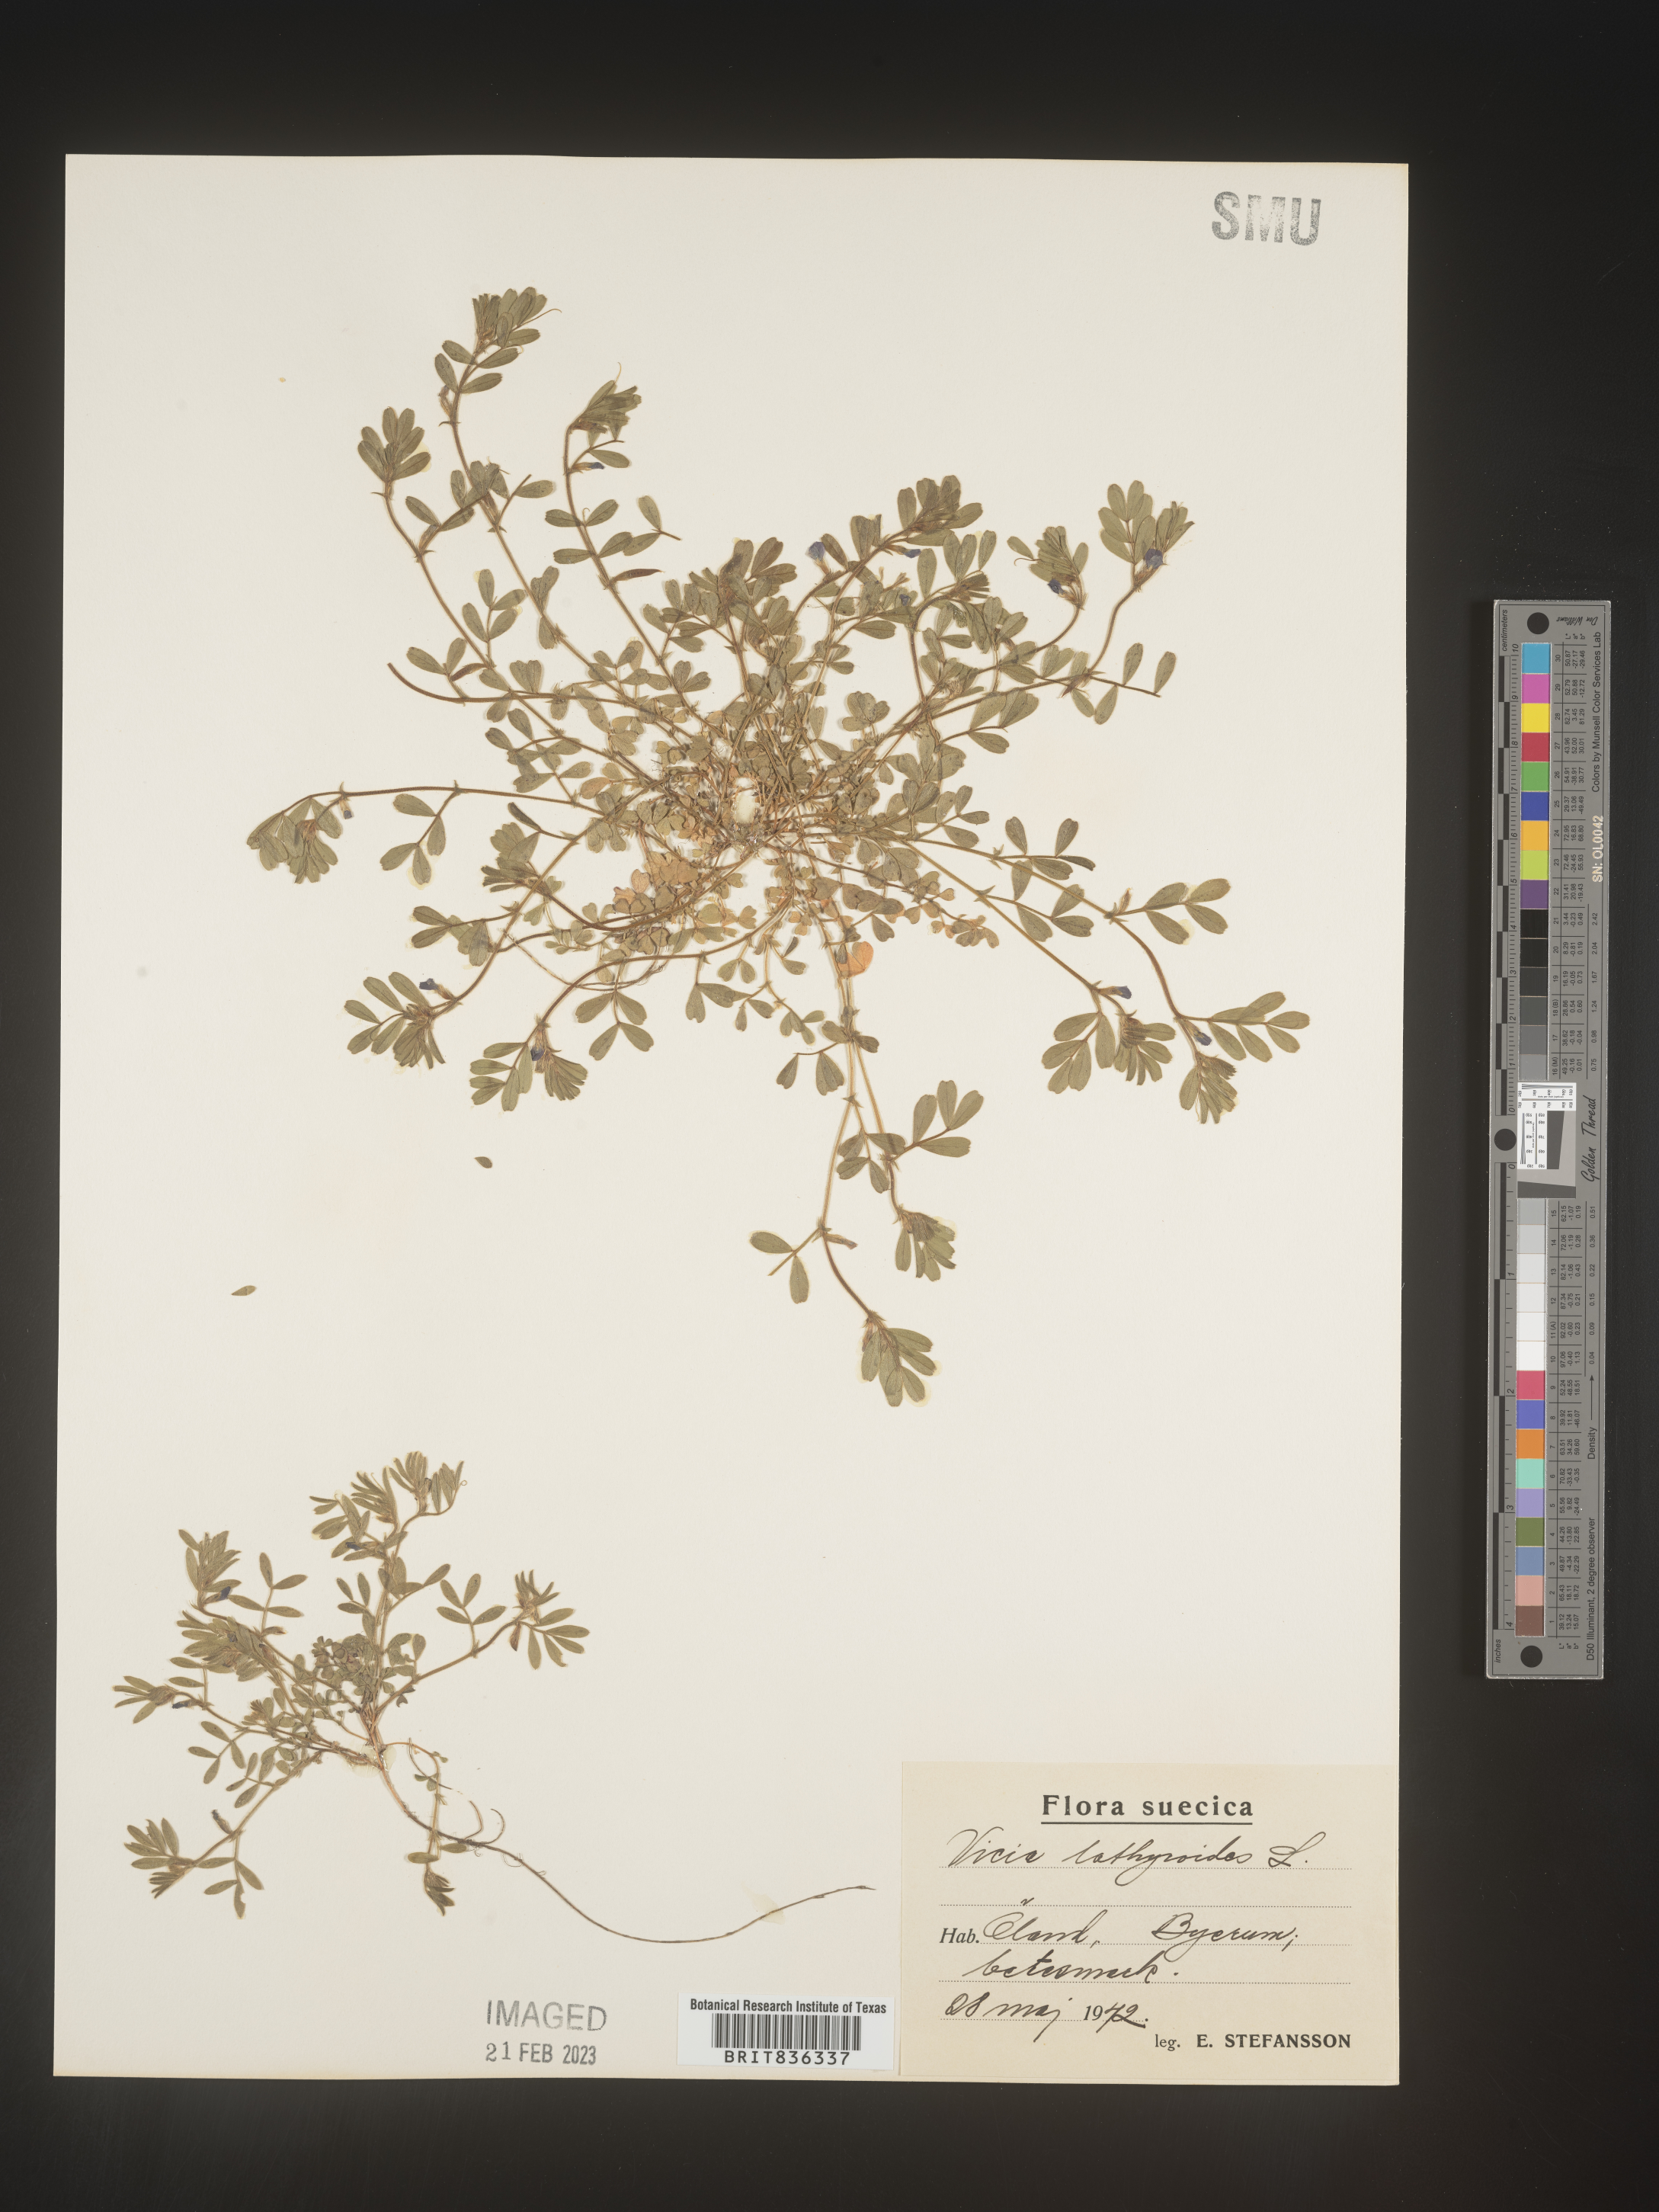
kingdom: Plantae
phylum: Tracheophyta
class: Magnoliopsida
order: Fabales
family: Fabaceae
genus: Vicia
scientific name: Vicia
